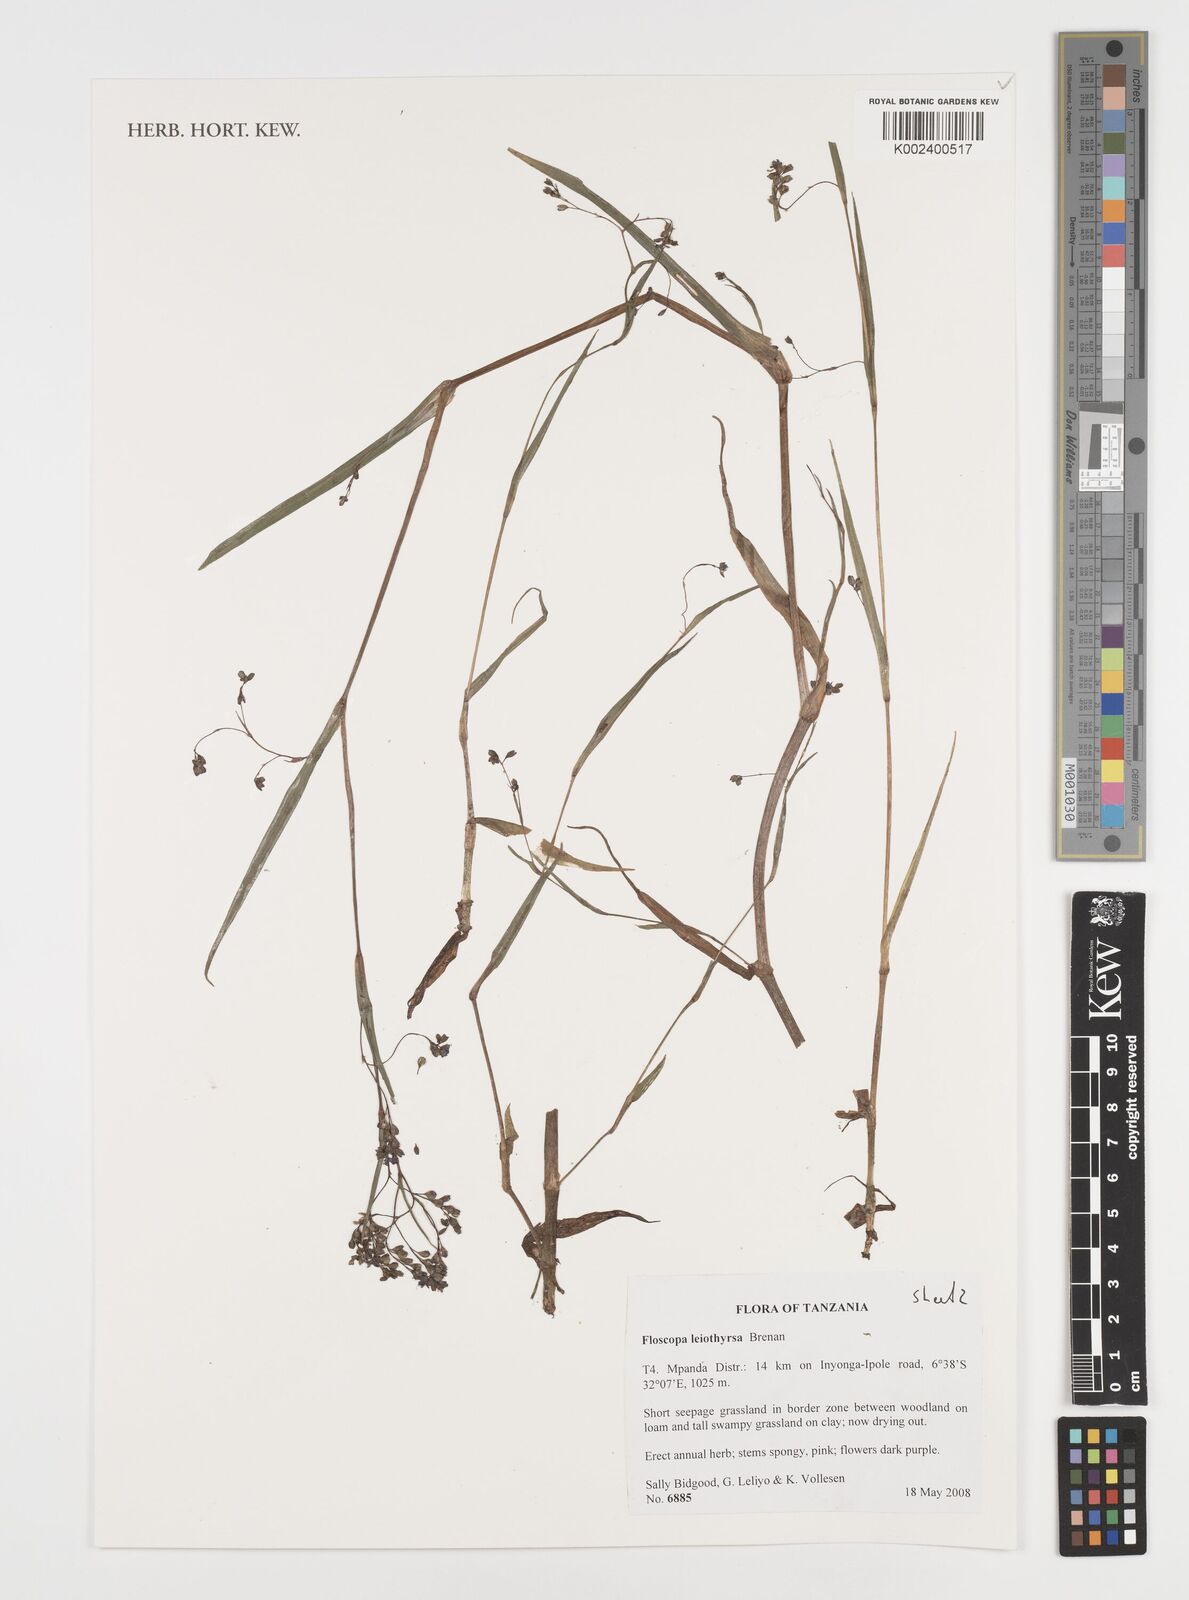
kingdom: Plantae
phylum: Tracheophyta
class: Liliopsida
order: Commelinales
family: Commelinaceae
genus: Floscopa
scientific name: Floscopa leiothyrsa
